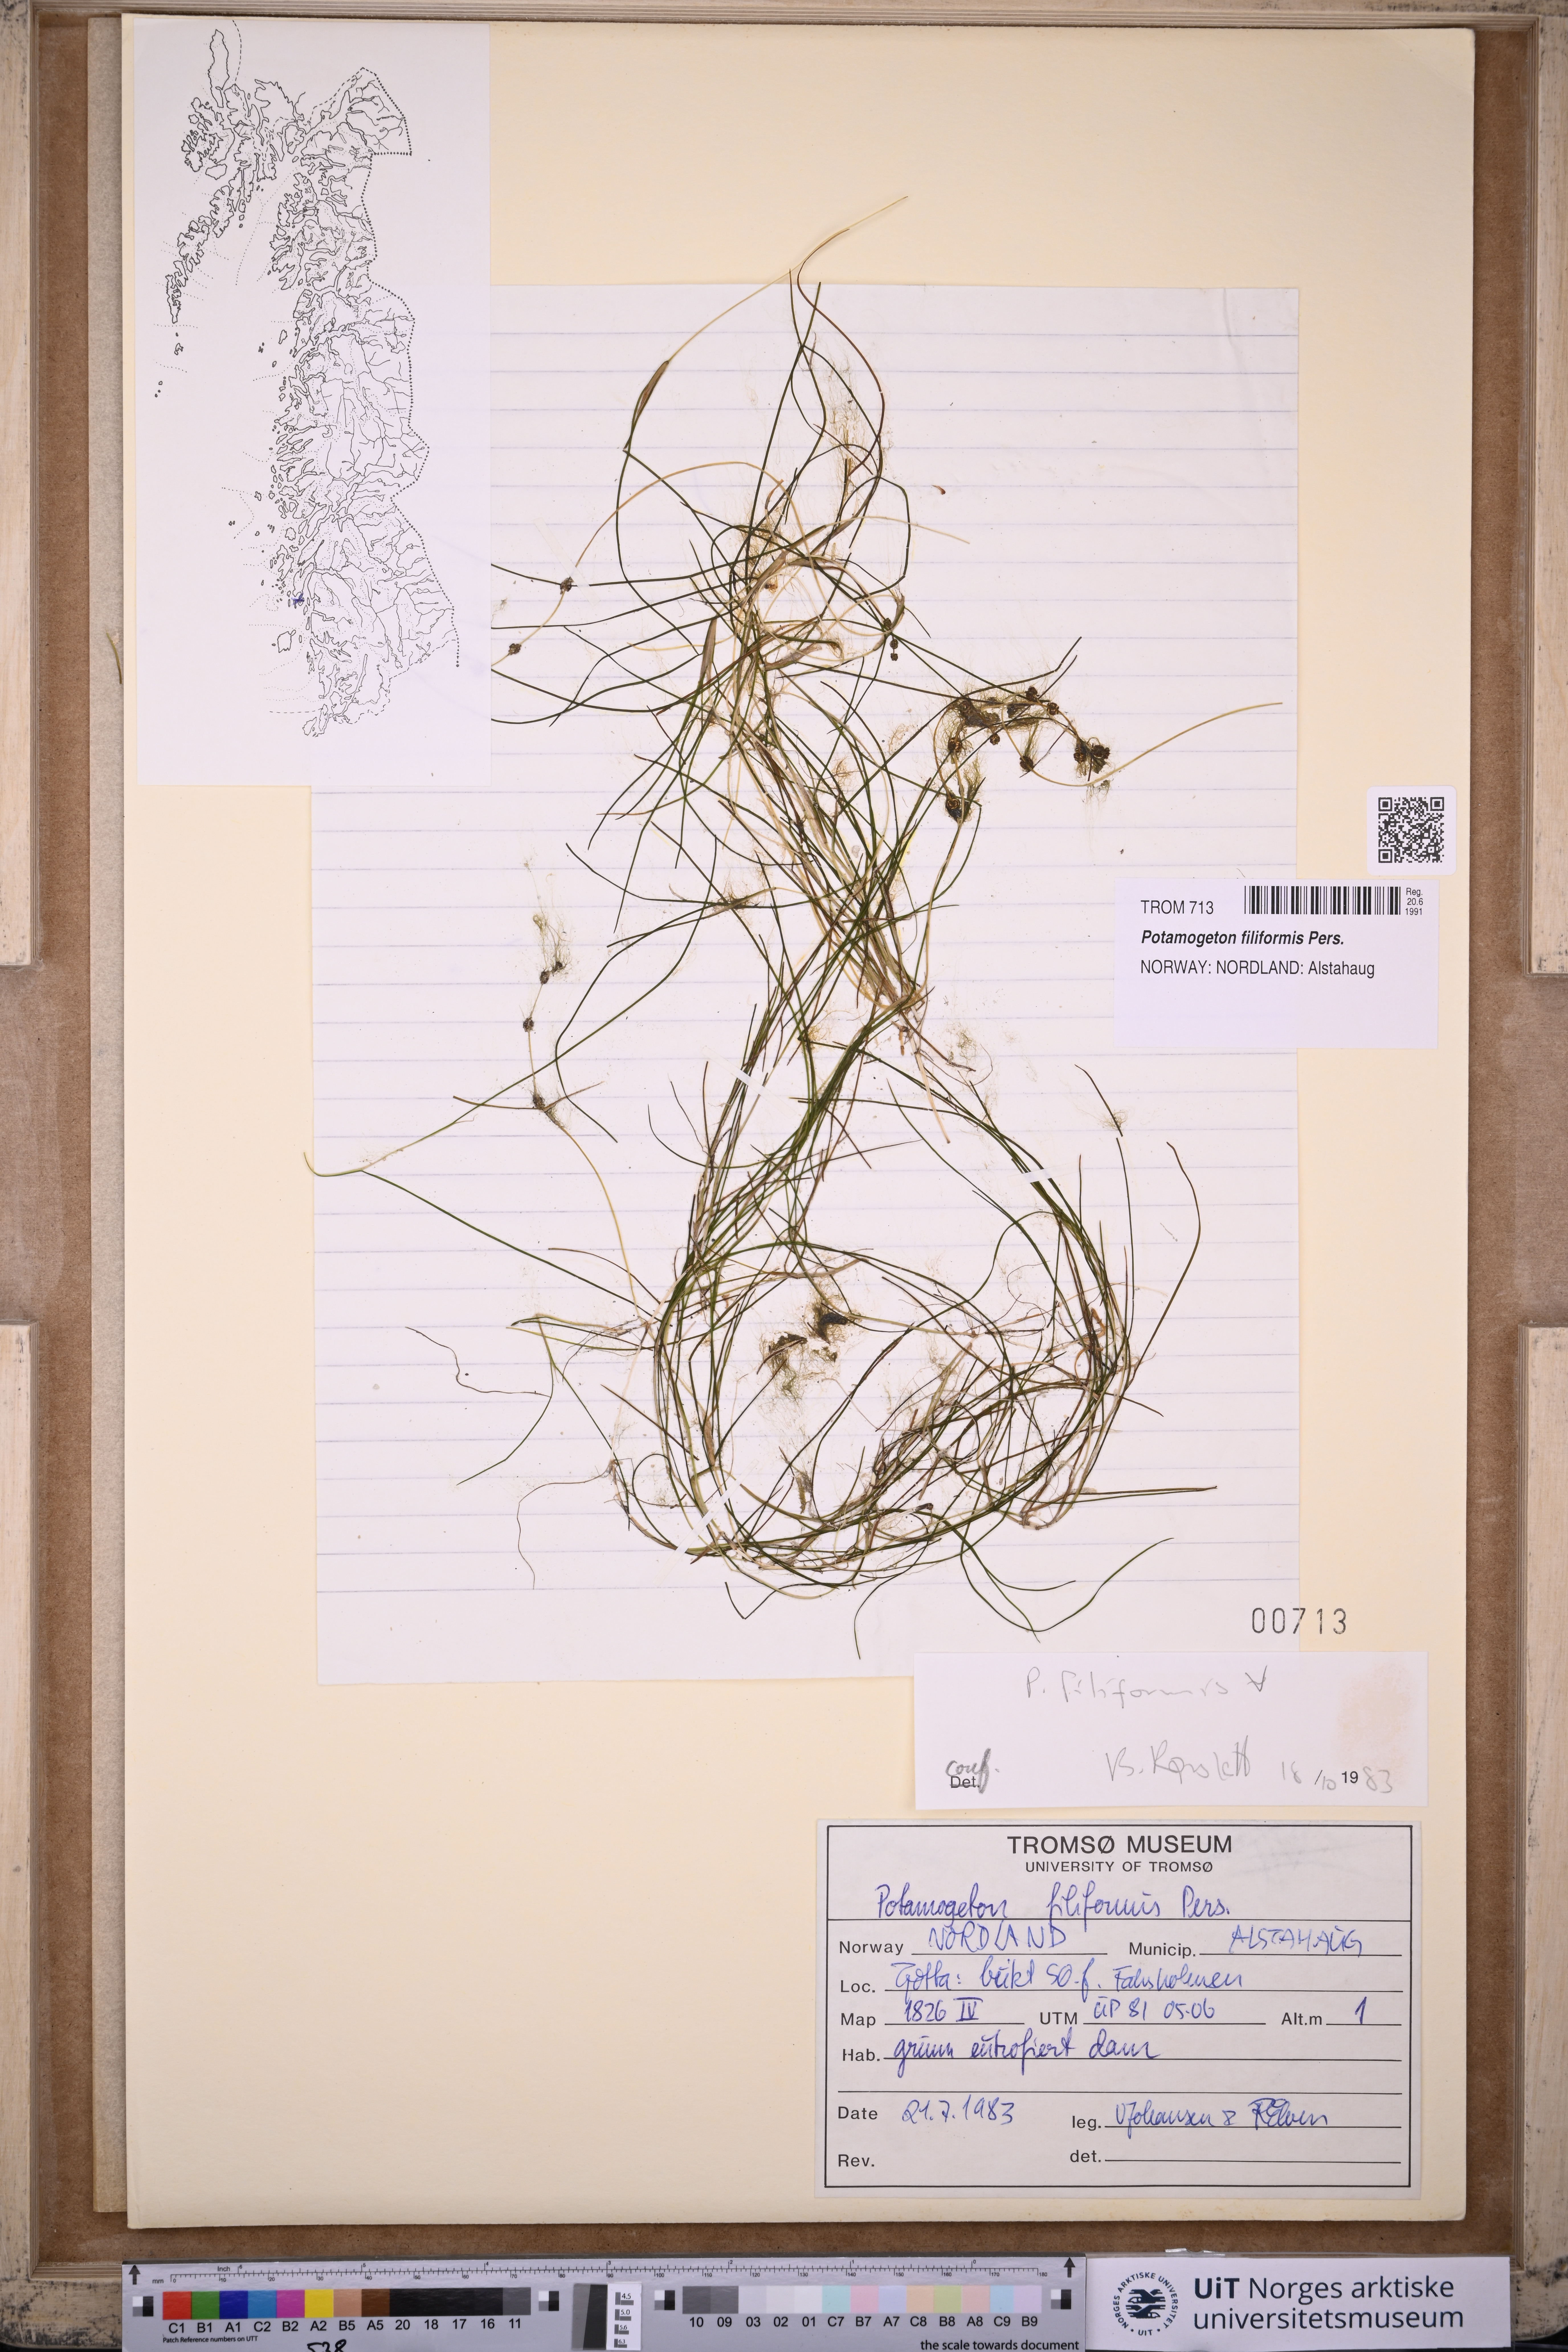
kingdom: Plantae
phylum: Tracheophyta
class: Liliopsida
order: Alismatales
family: Potamogetonaceae
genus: Stuckenia
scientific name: Stuckenia filiformis
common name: Alpine thread-leaved pondweed
